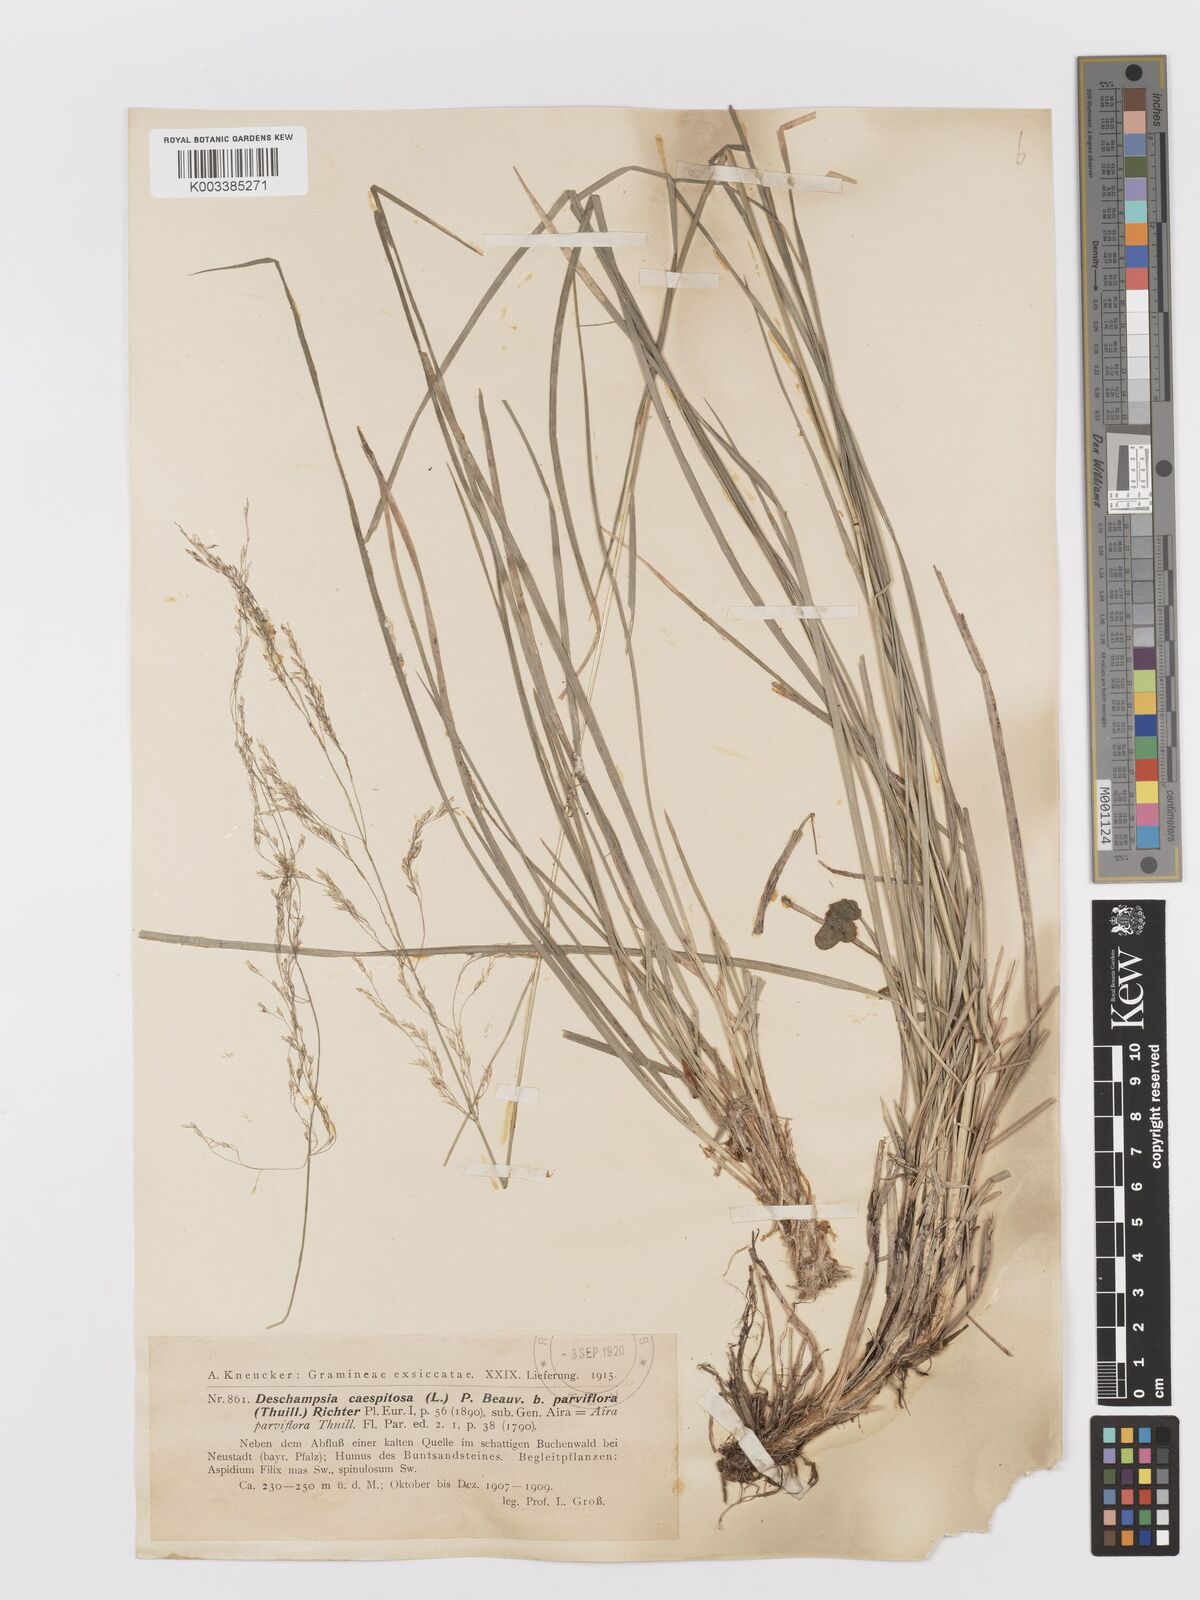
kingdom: Plantae
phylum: Tracheophyta
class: Liliopsida
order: Poales
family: Poaceae
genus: Deschampsia
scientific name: Deschampsia cespitosa
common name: Tufted hair-grass
